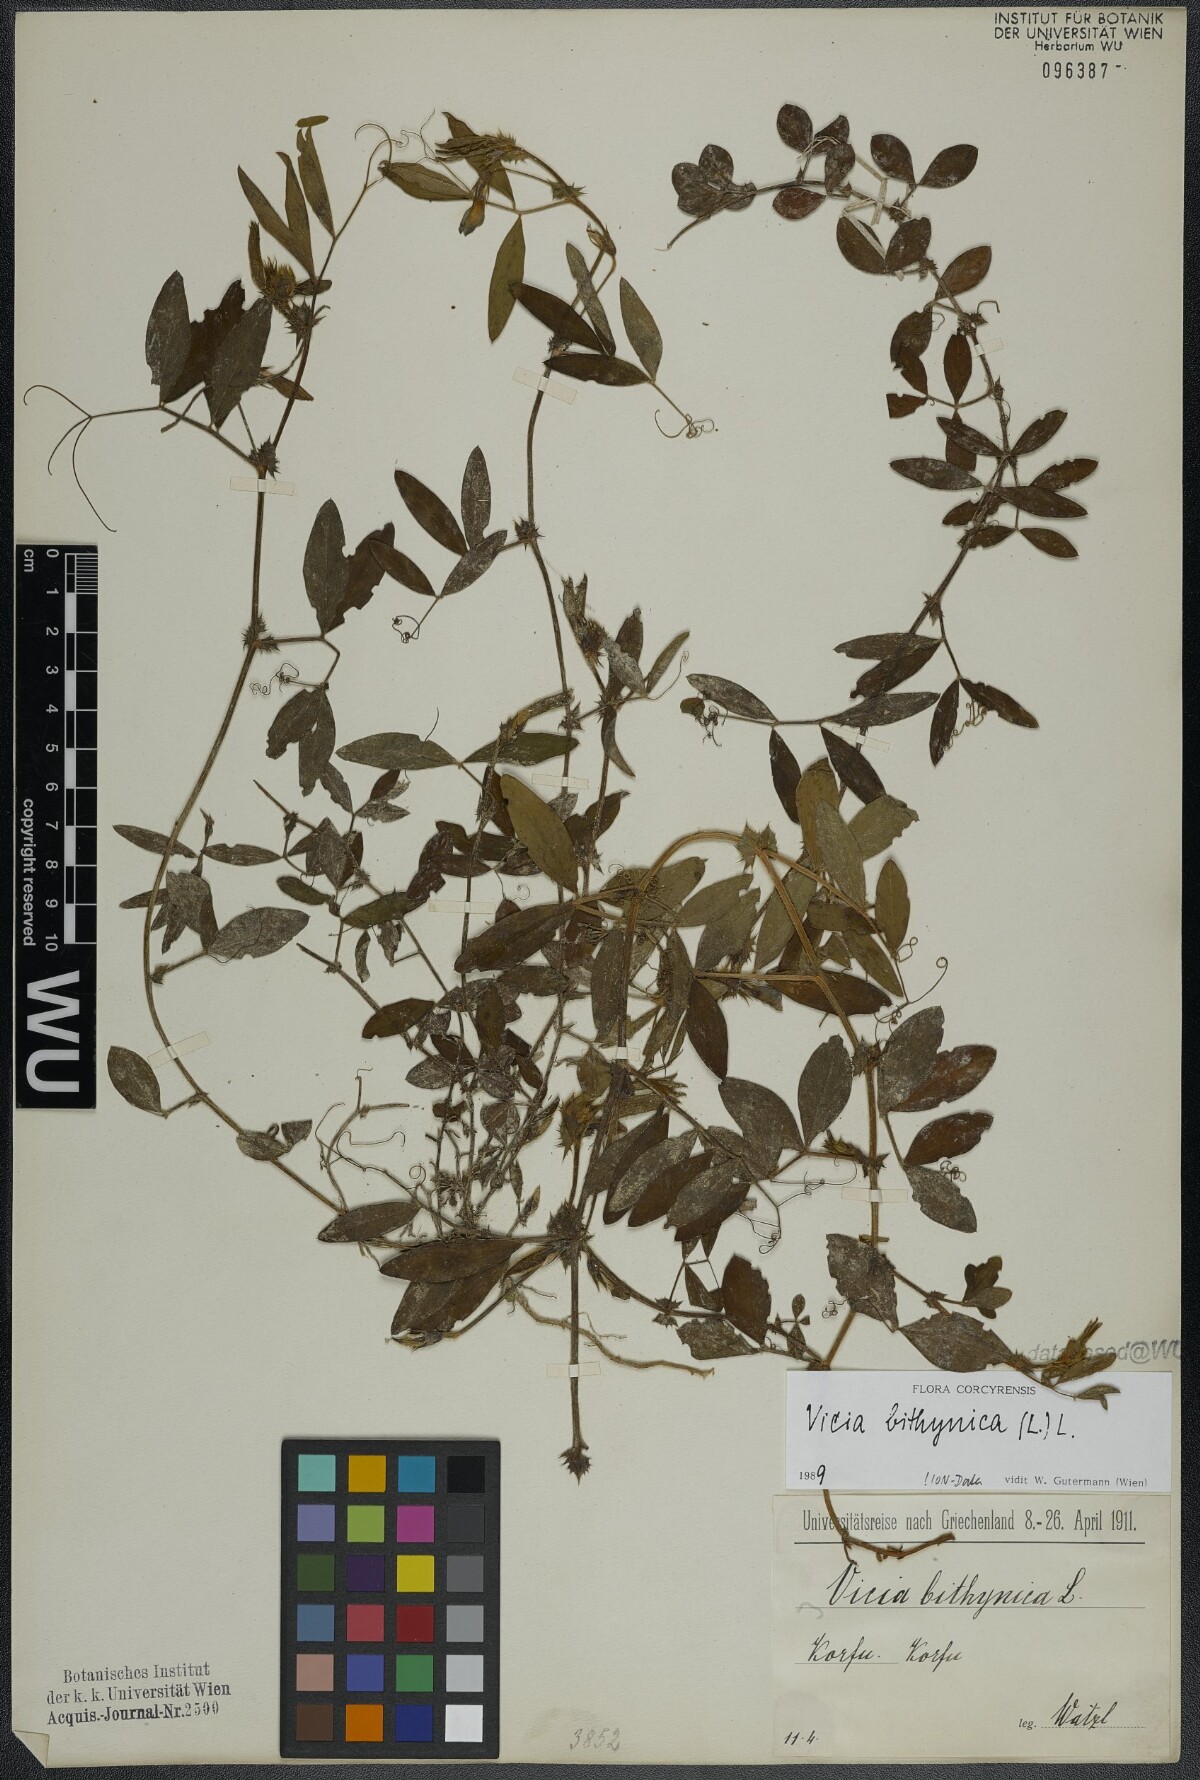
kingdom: Plantae
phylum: Tracheophyta
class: Magnoliopsida
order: Fabales
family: Fabaceae
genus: Vicia
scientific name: Vicia bithynica
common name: Bithynian vetch
